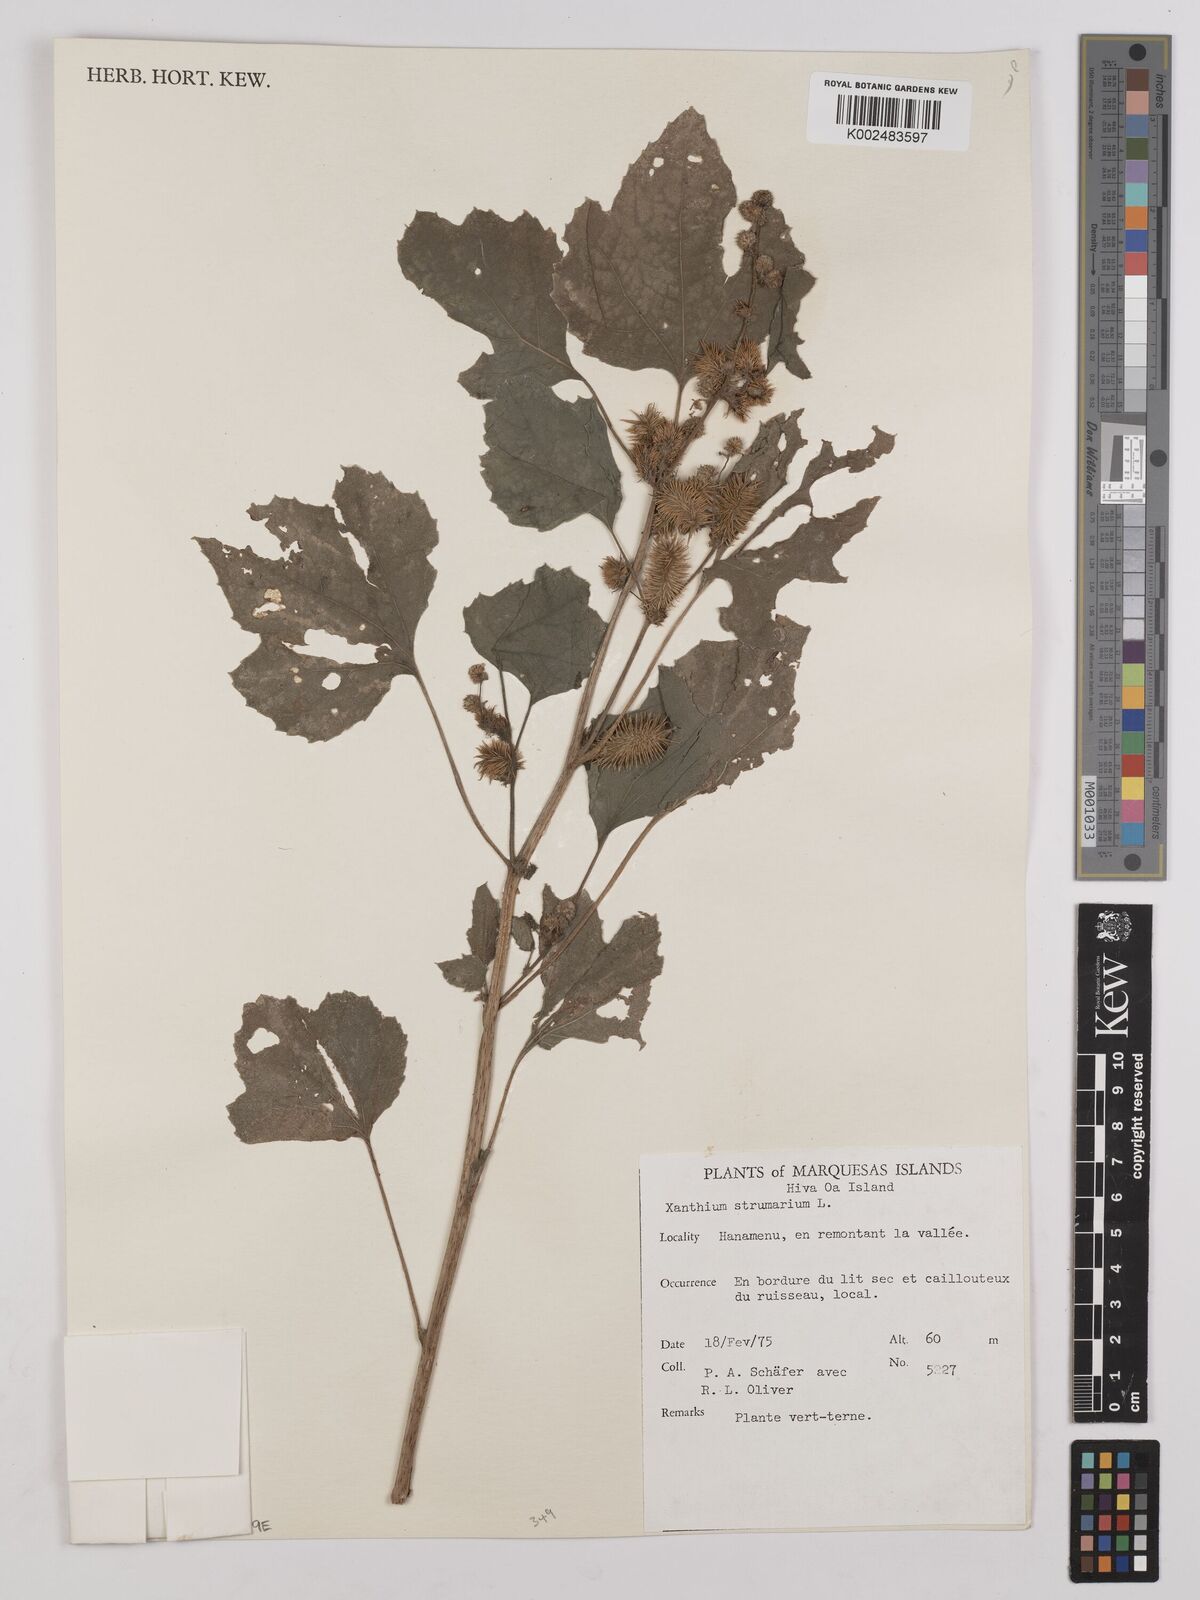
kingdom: Plantae
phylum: Tracheophyta
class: Magnoliopsida
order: Asterales
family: Asteraceae
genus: Xanthium
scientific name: Xanthium strumarium
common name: Rough cocklebur
